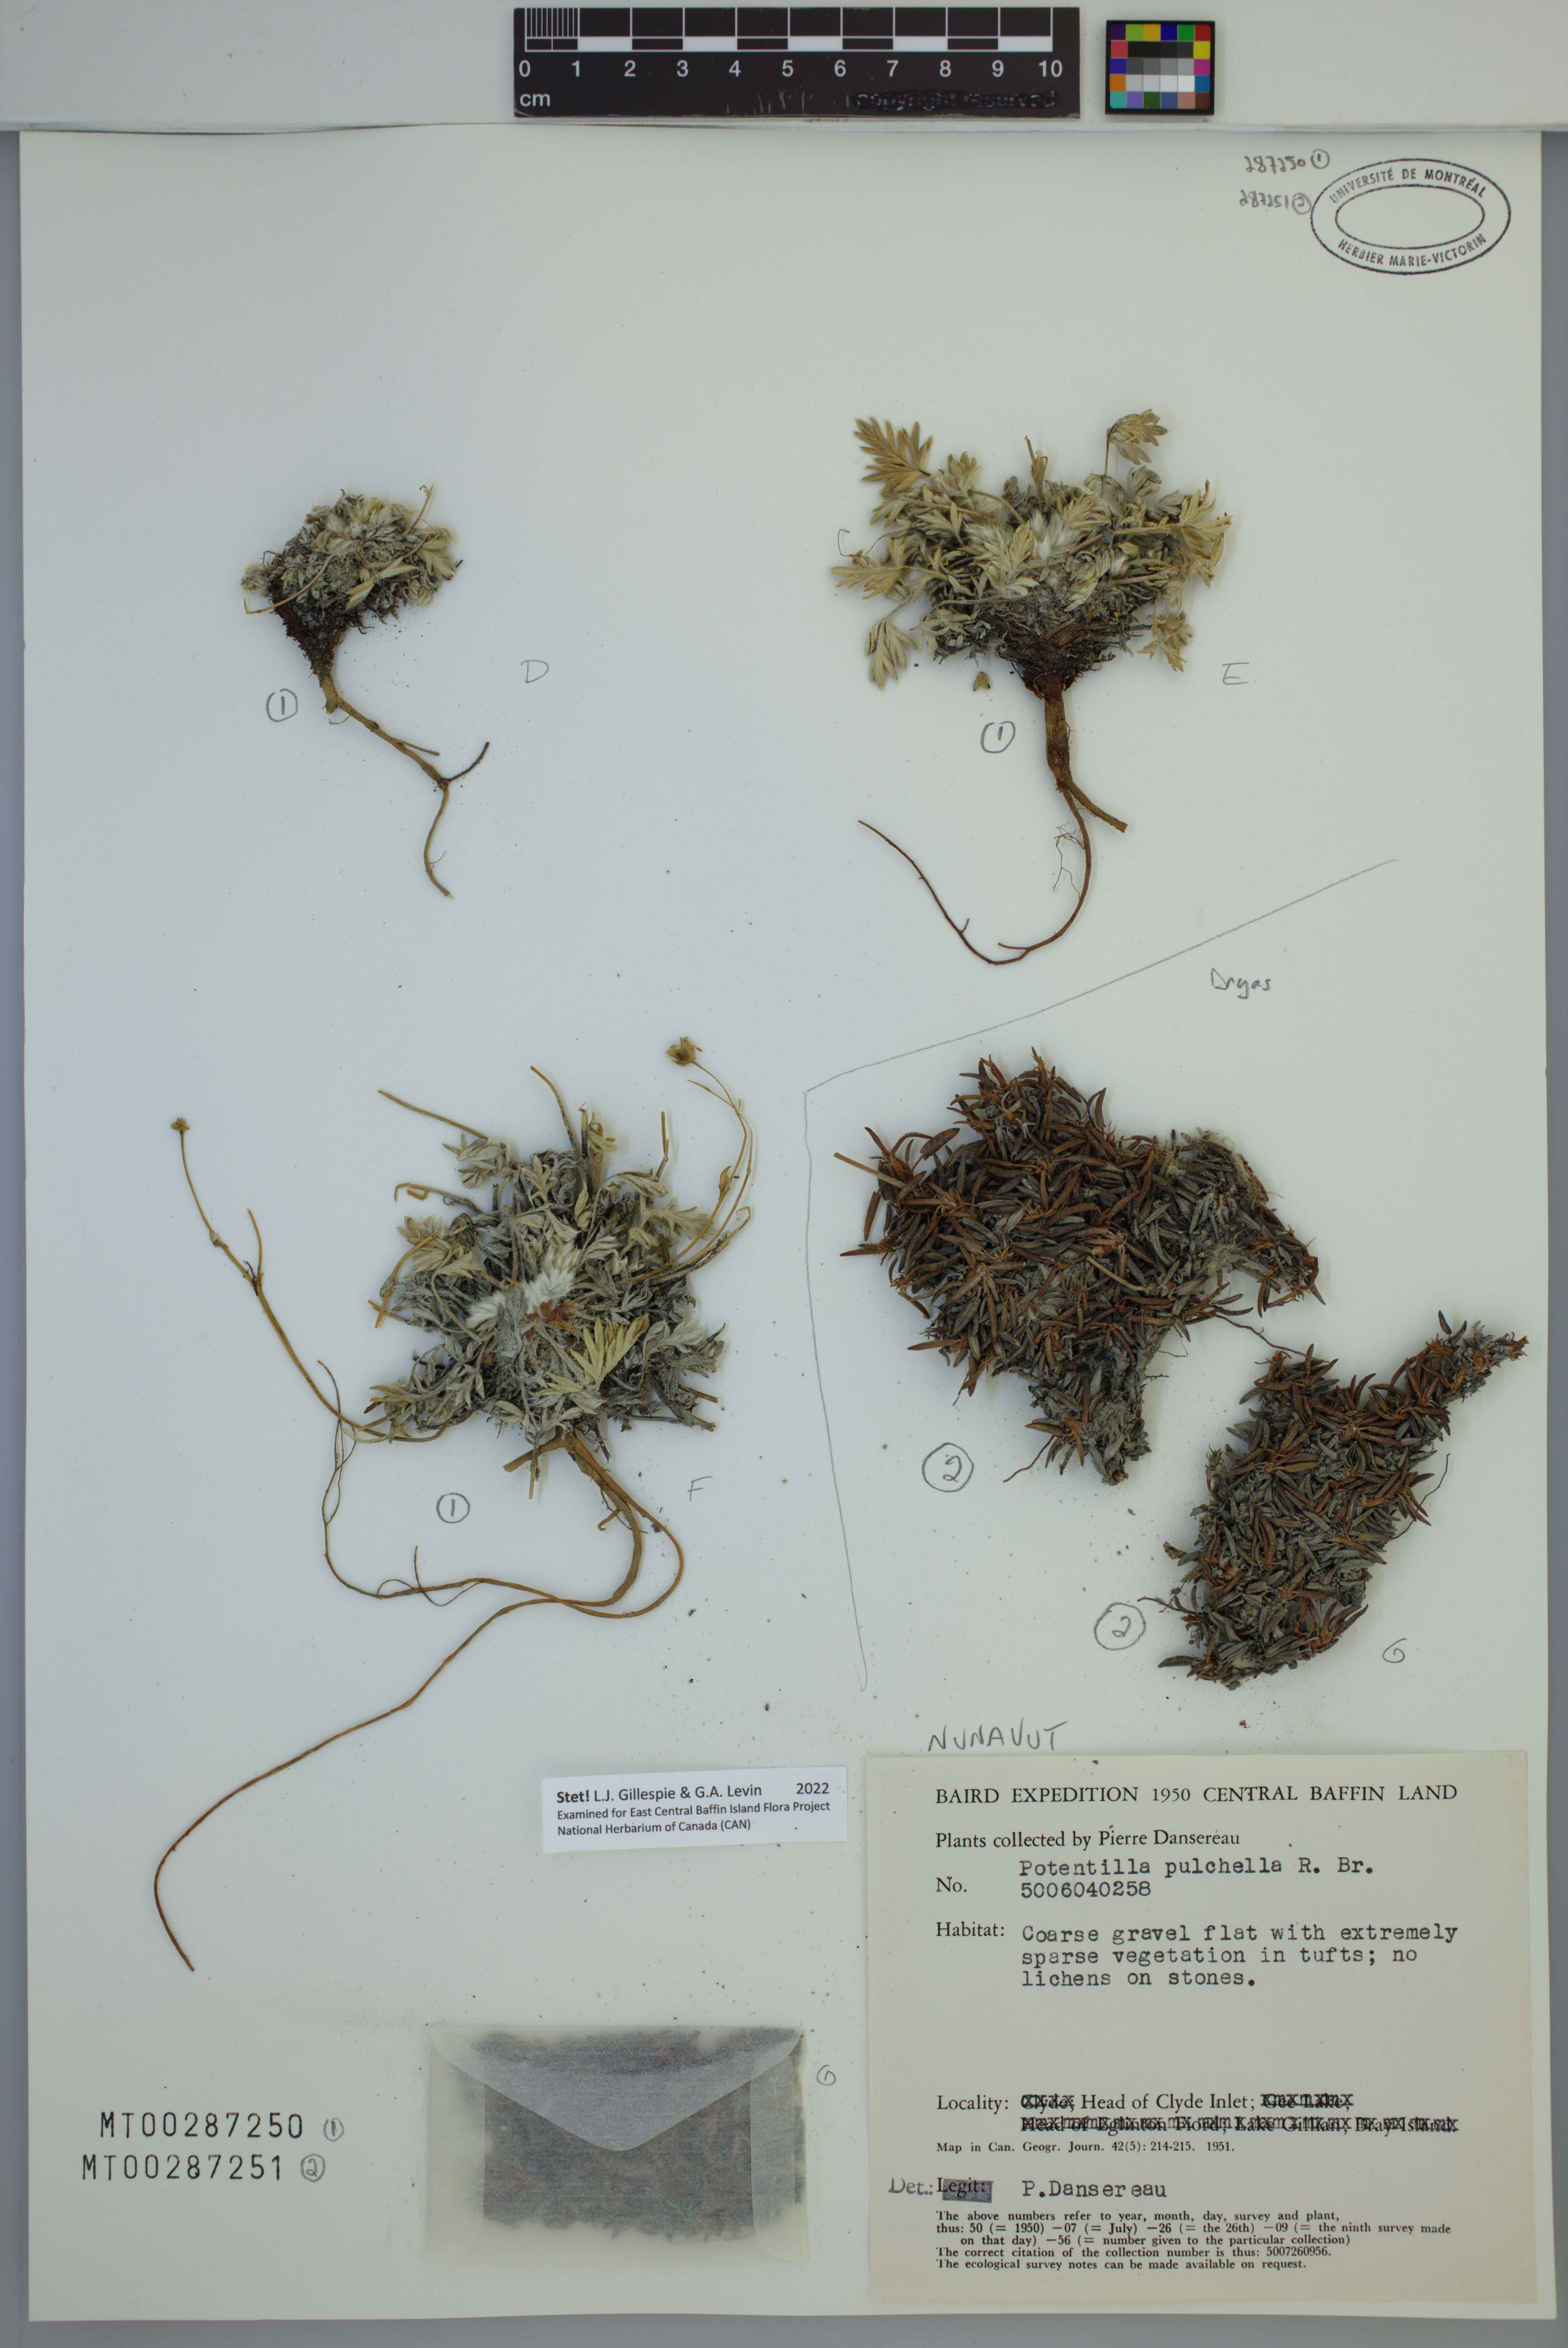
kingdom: Plantae
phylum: Tracheophyta
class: Magnoliopsida
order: Rosales
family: Rosaceae
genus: Dryas
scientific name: Dryas
